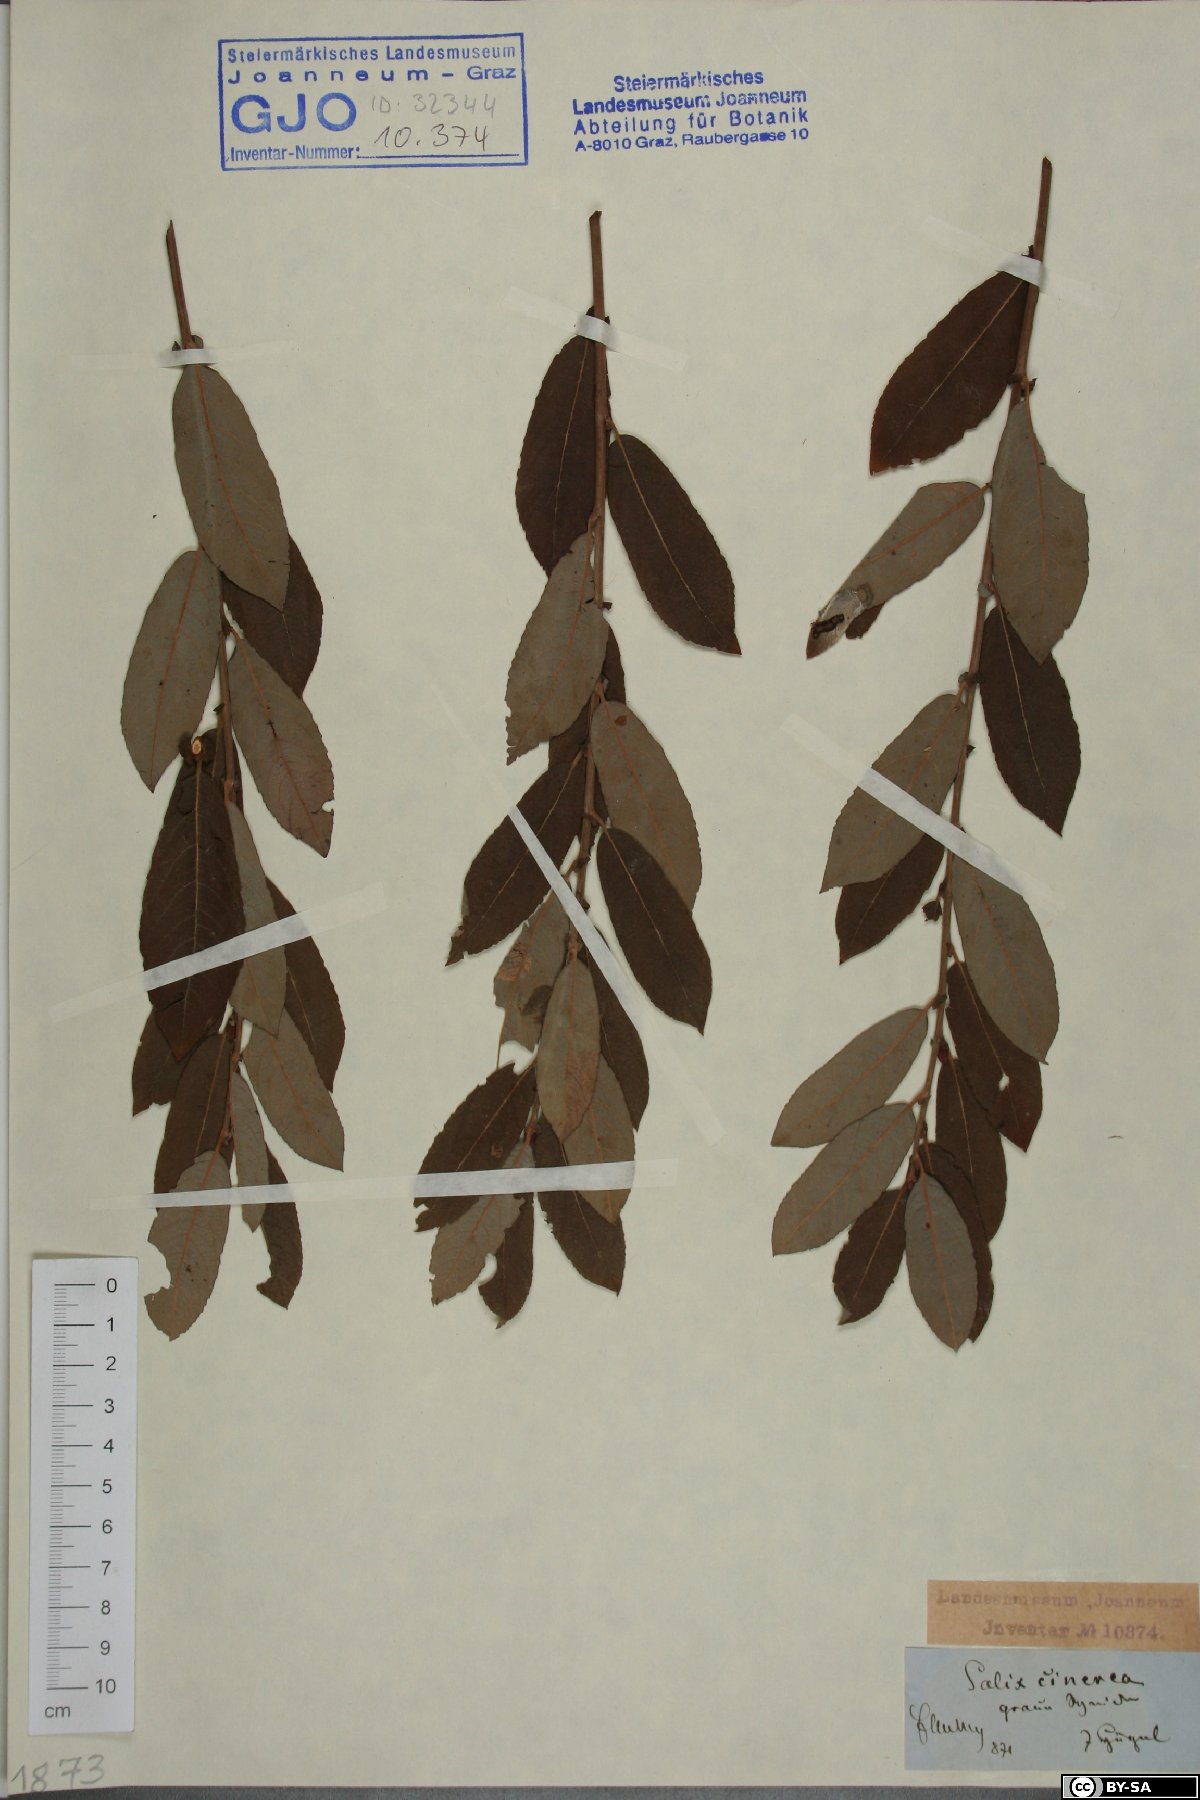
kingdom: Plantae
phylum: Tracheophyta
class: Magnoliopsida
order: Malpighiales
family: Salicaceae
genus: Salix
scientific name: Salix cinerea
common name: Common sallow
